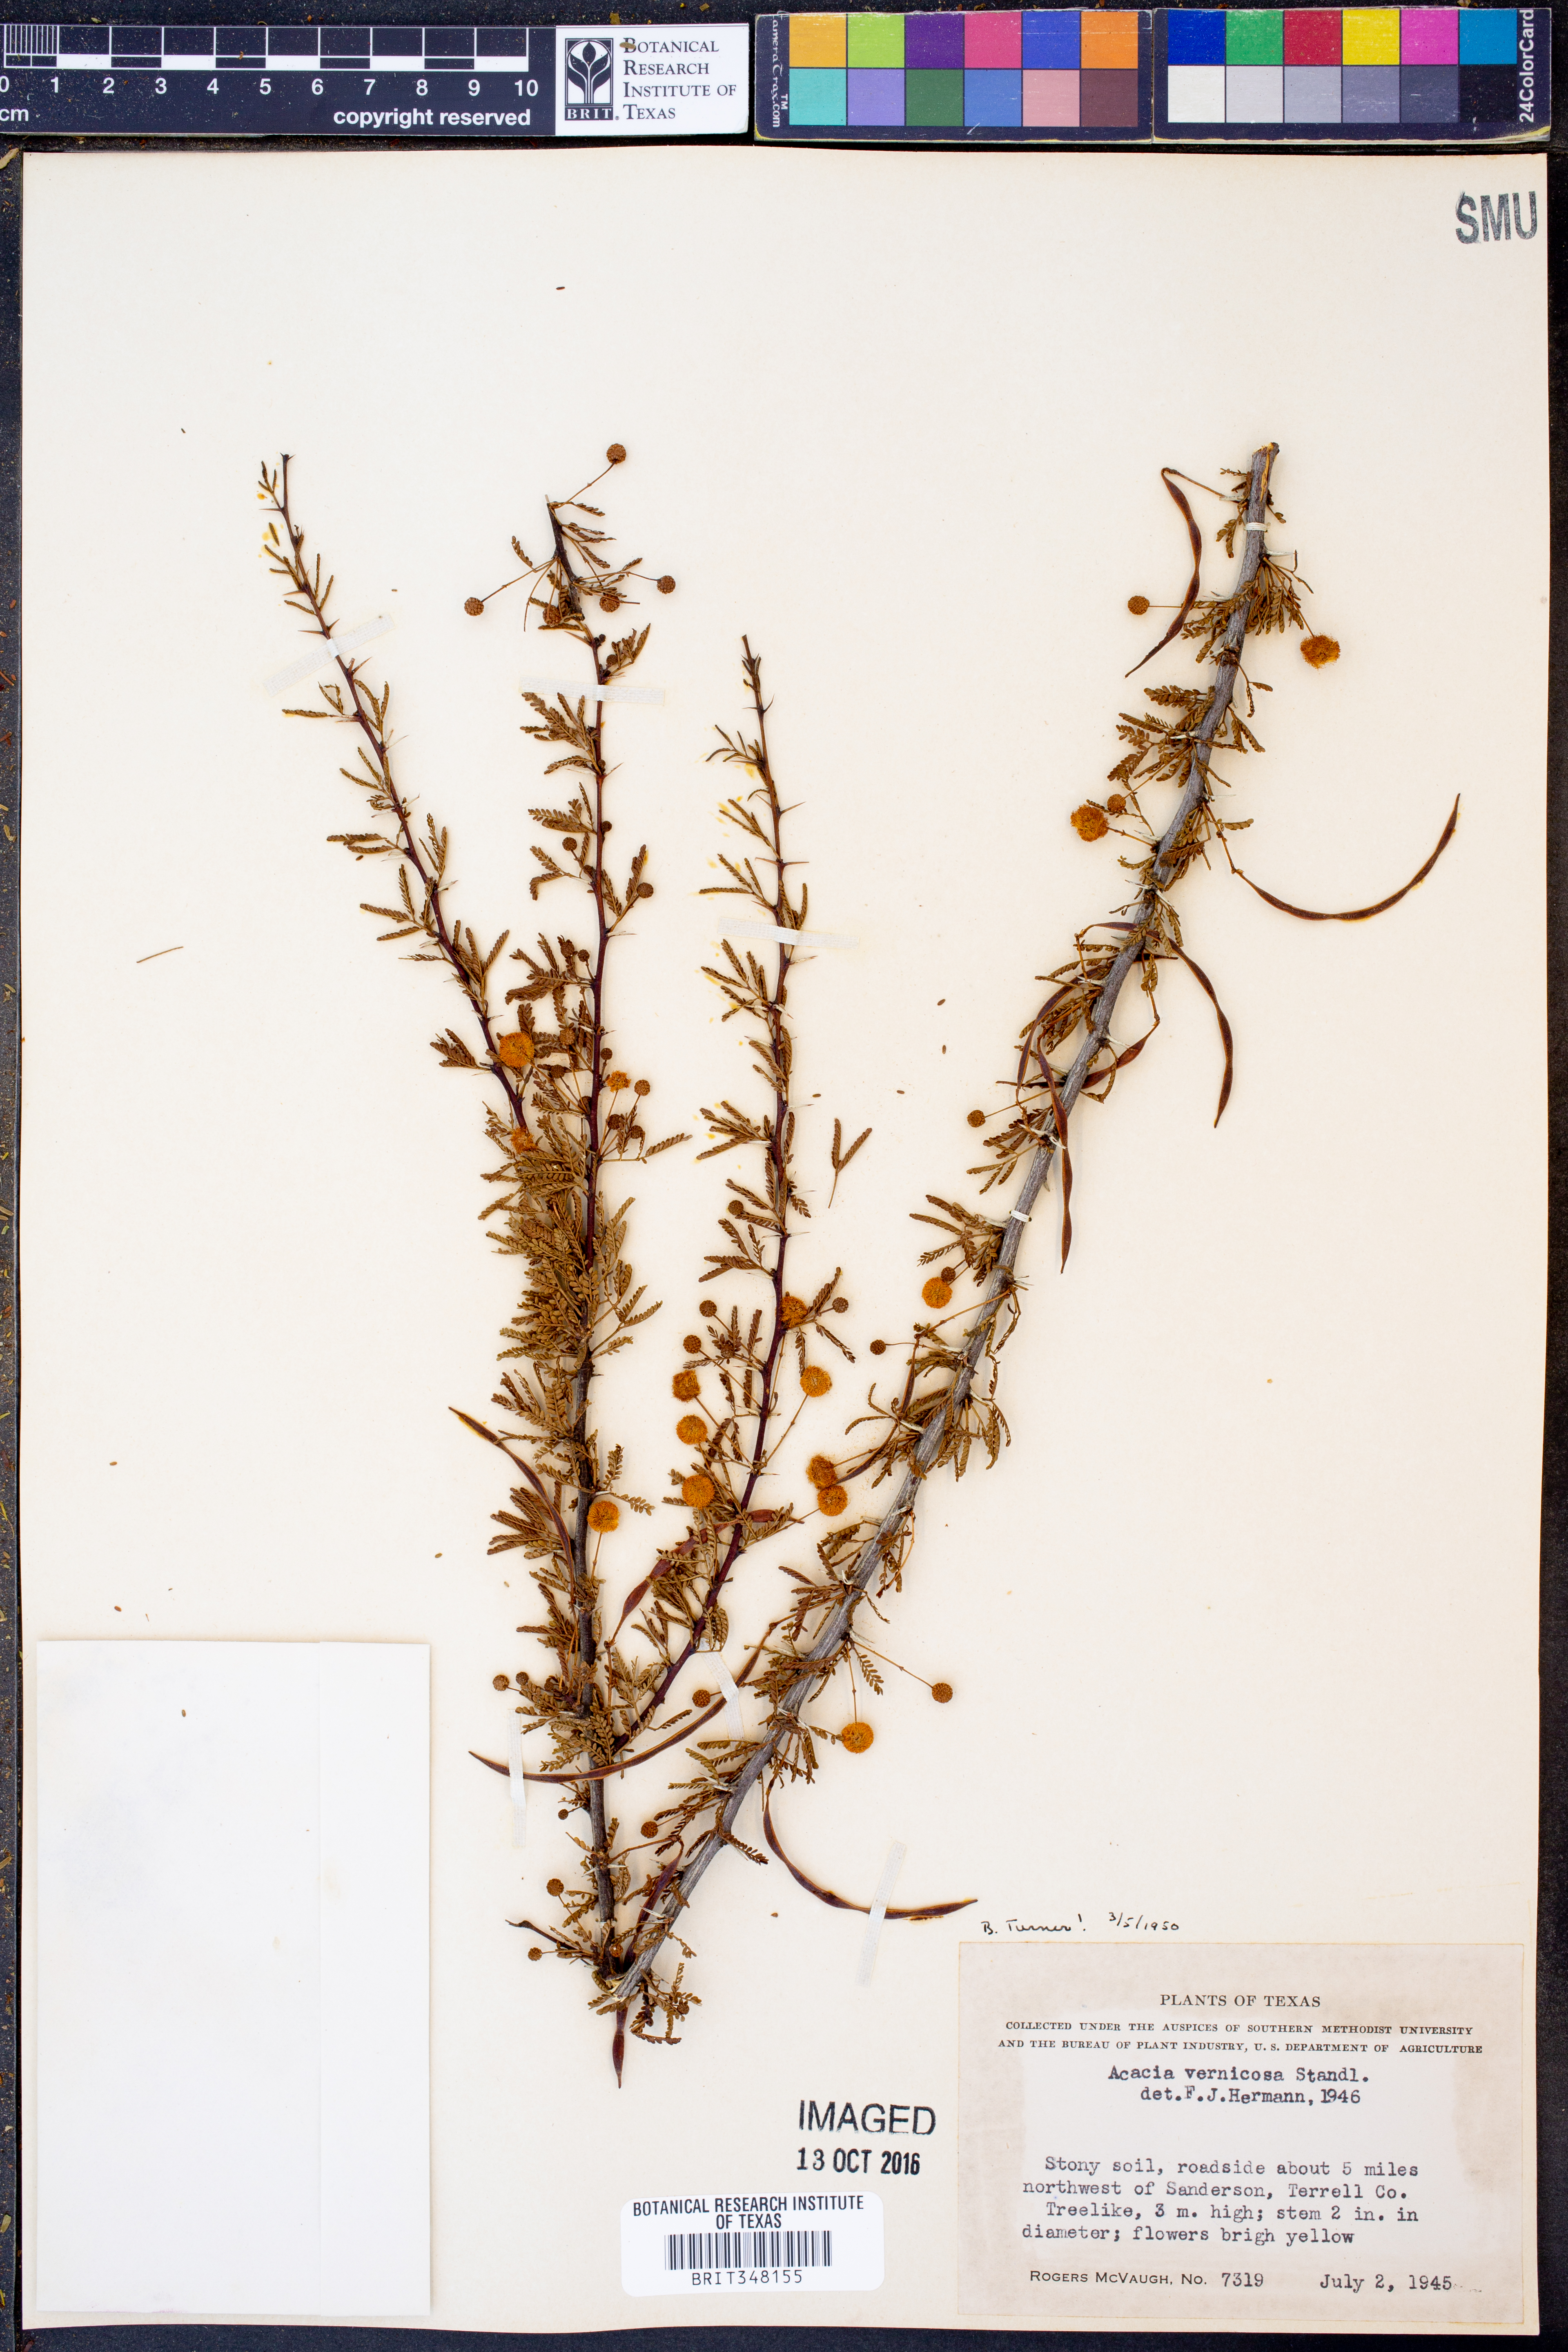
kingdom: Plantae
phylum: Tracheophyta
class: Magnoliopsida
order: Fabales
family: Fabaceae
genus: Vachellia
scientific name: Vachellia vernicosa
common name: Viscid acacia
